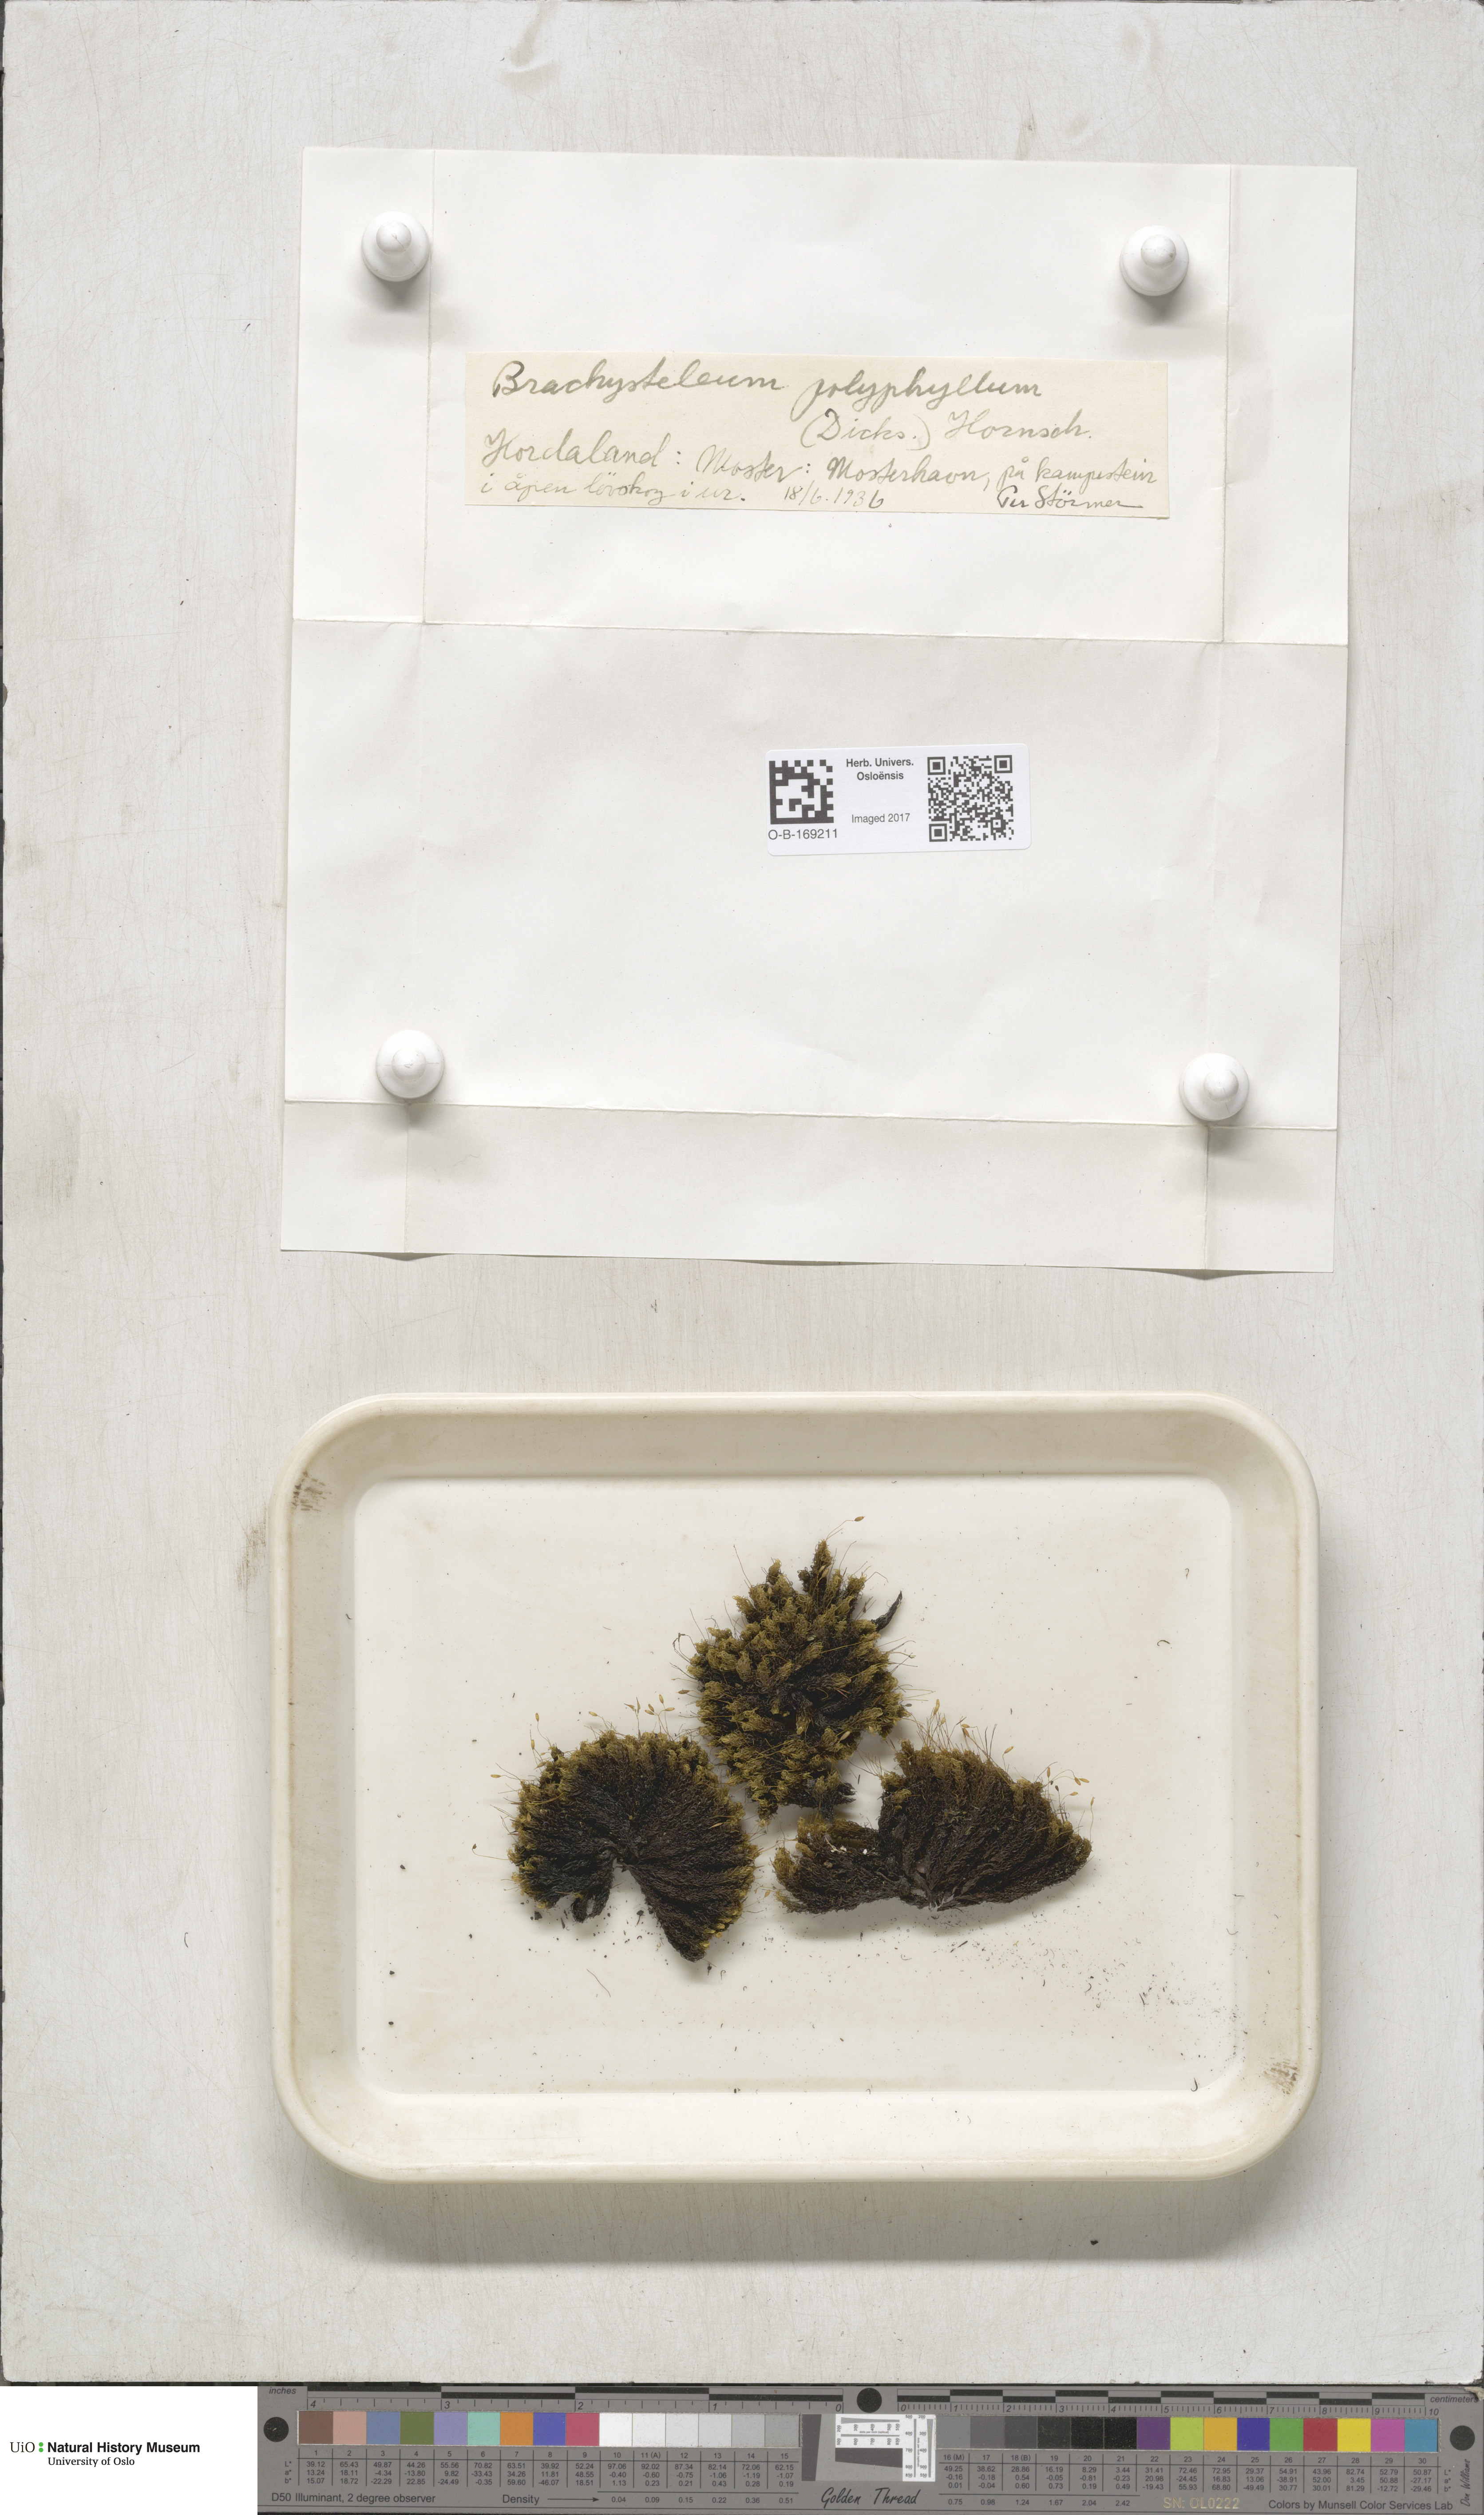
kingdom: Plantae
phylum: Bryophyta
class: Bryopsida
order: Grimmiales
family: Ptychomitriaceae
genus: Ptychomitrium
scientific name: Ptychomitrium polyphyllum
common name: Greater pincushion
